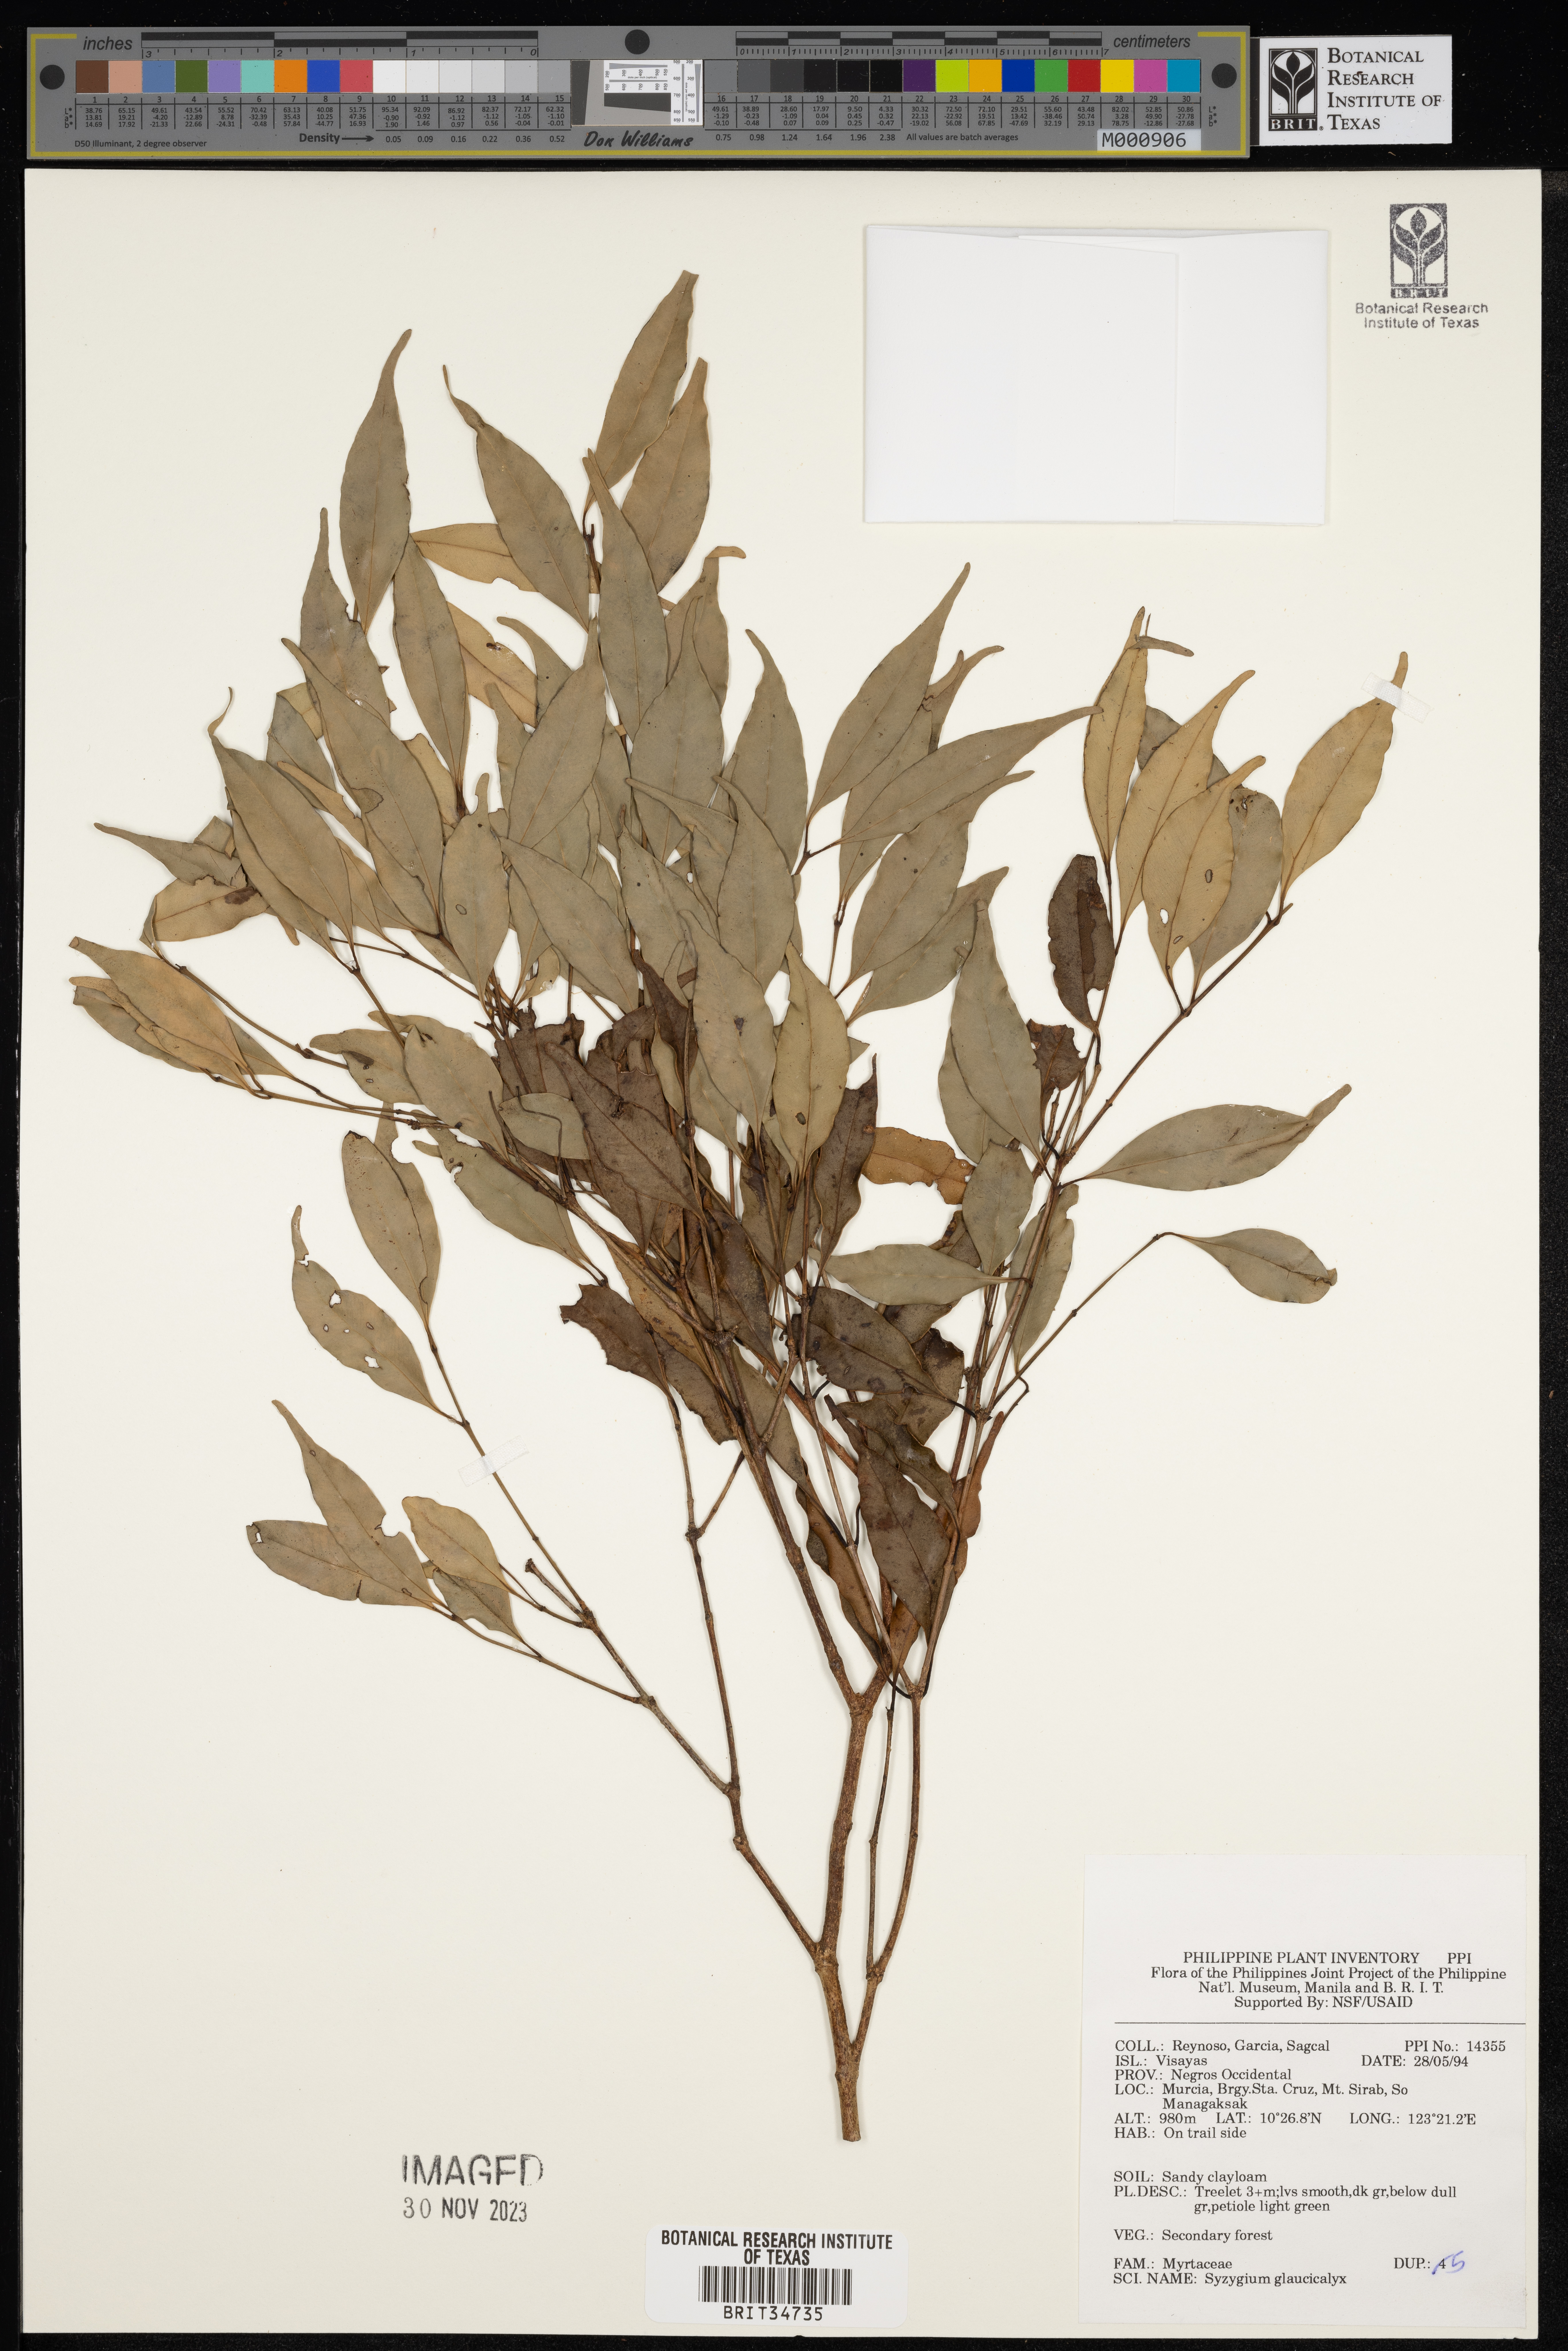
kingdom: Plantae
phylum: Tracheophyta
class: Magnoliopsida
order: Myrtales
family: Myrtaceae
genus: Syzygium
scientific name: Syzygium antisepticum
